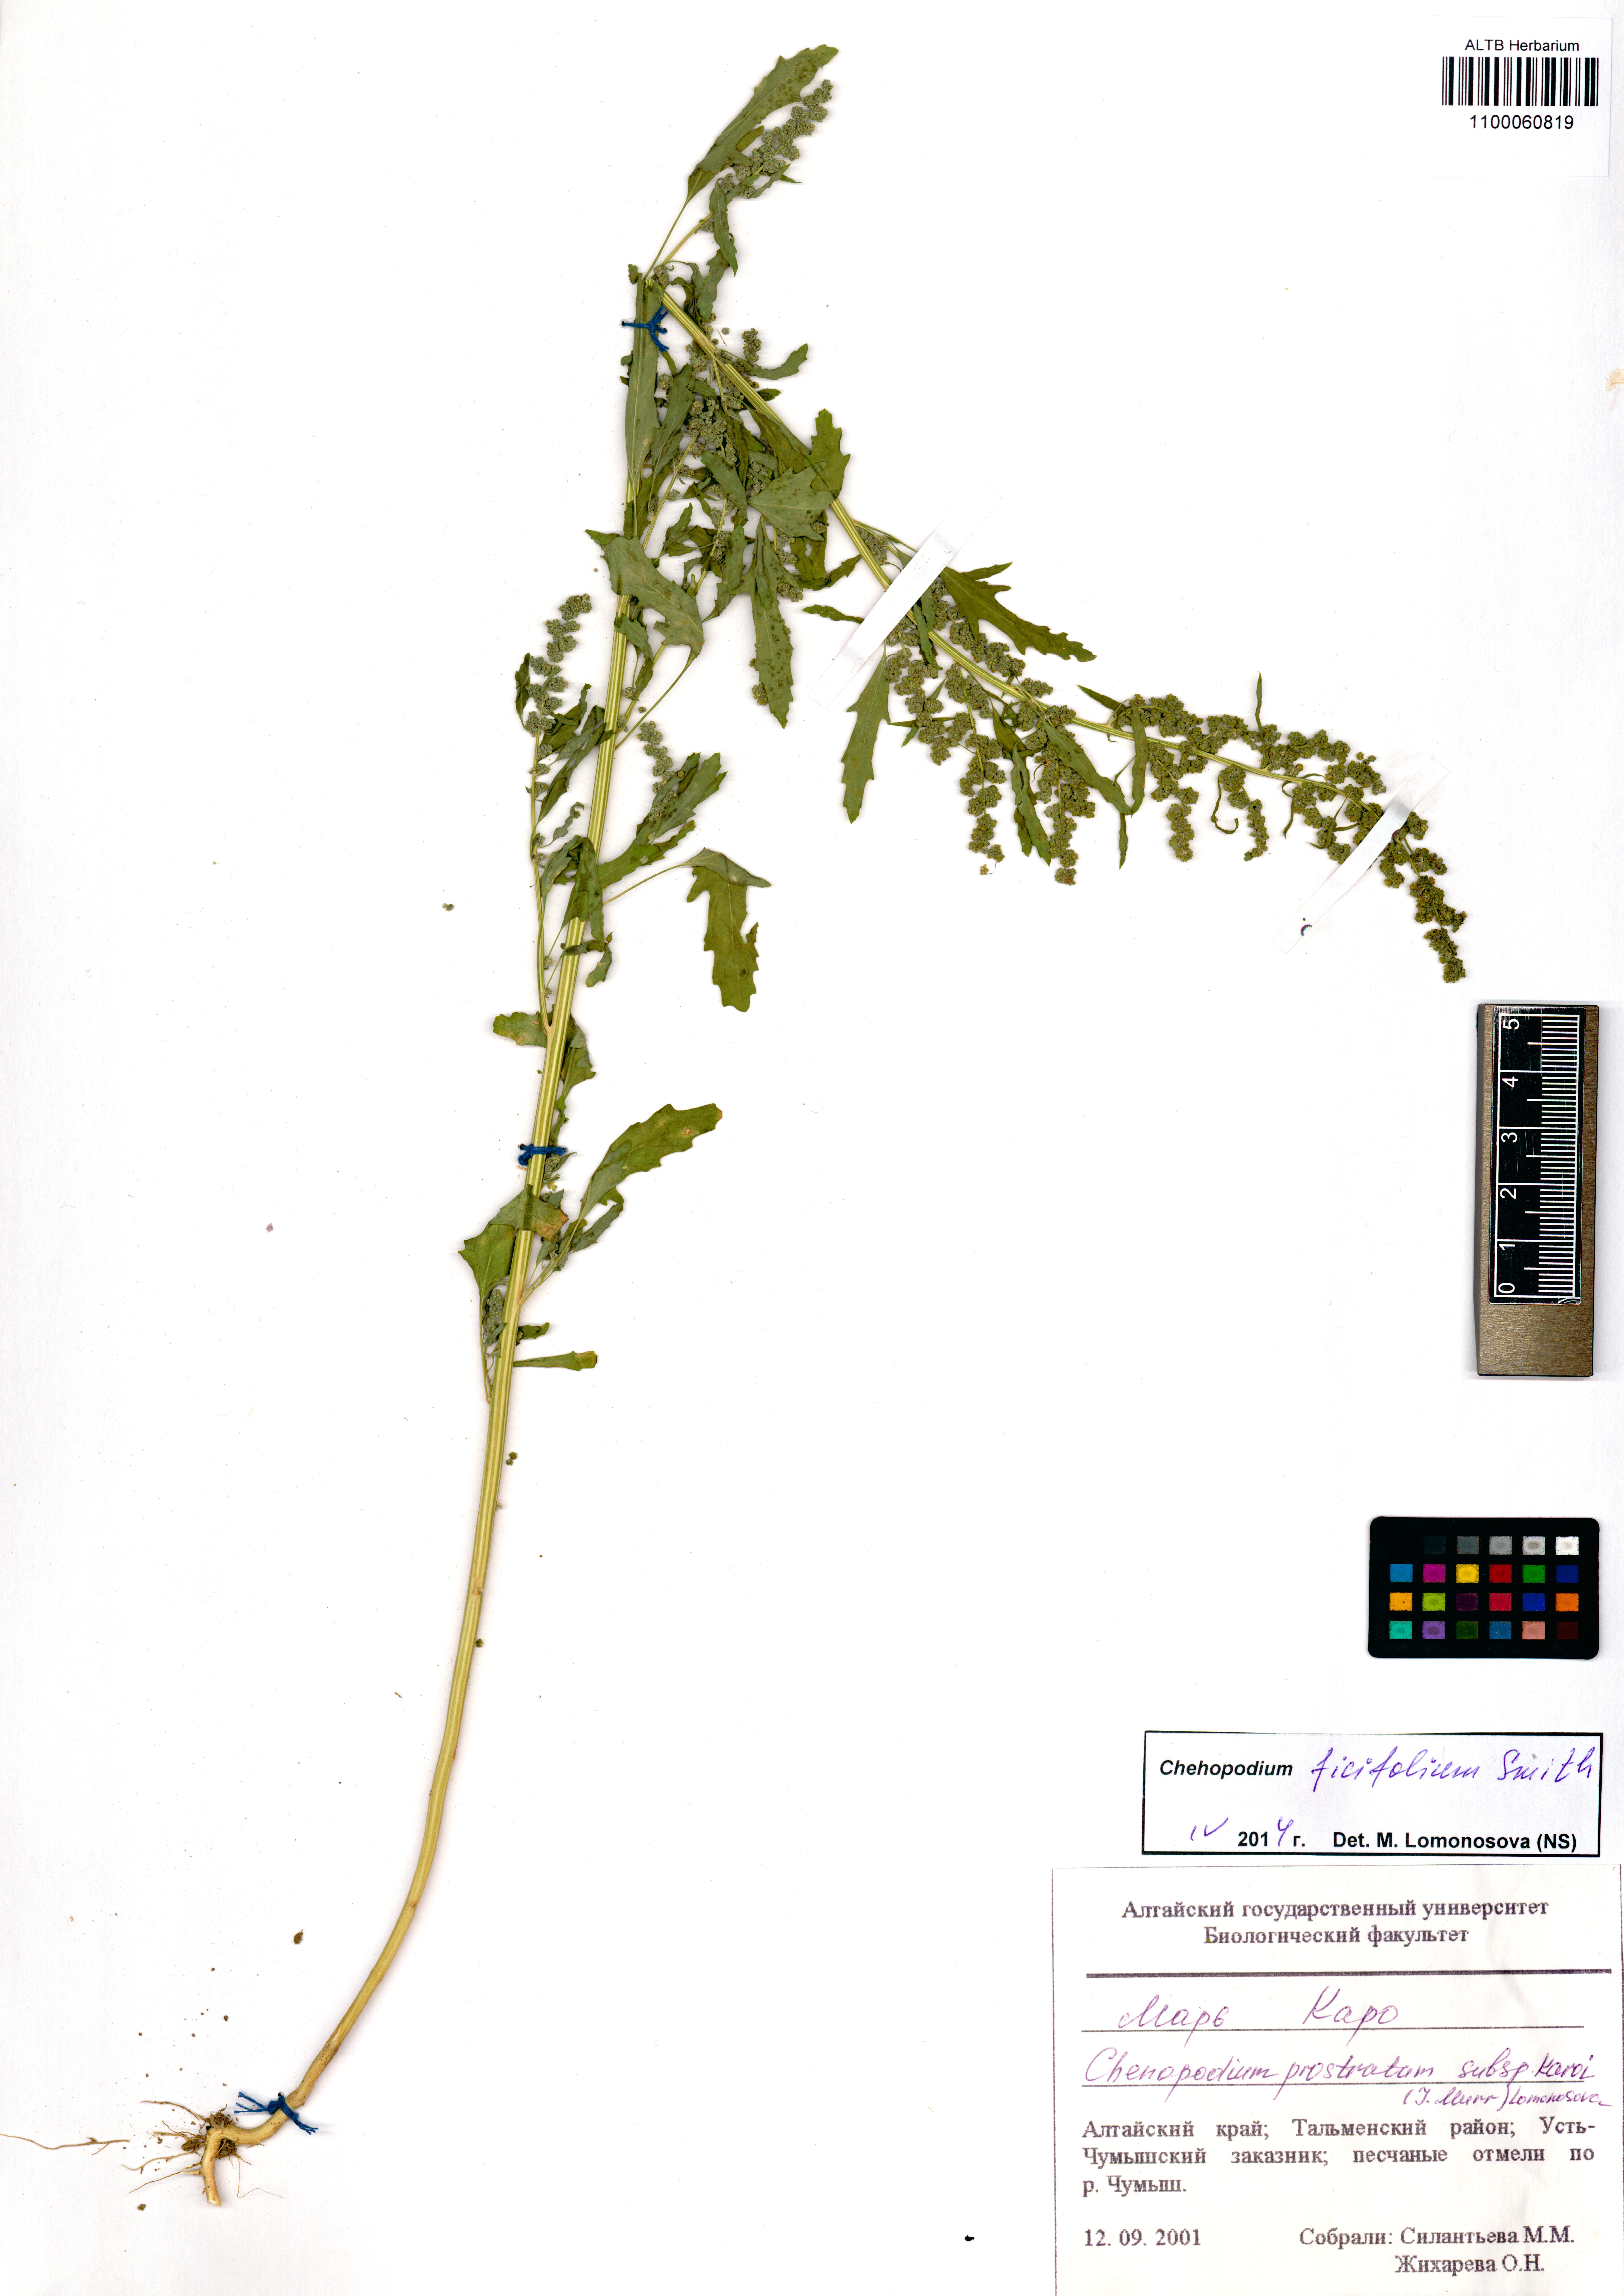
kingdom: Plantae
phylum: Tracheophyta
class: Magnoliopsida
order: Caryophyllales
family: Amaranthaceae
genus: Blitum
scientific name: Blitum virgatum
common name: Strawberry goosefoot
